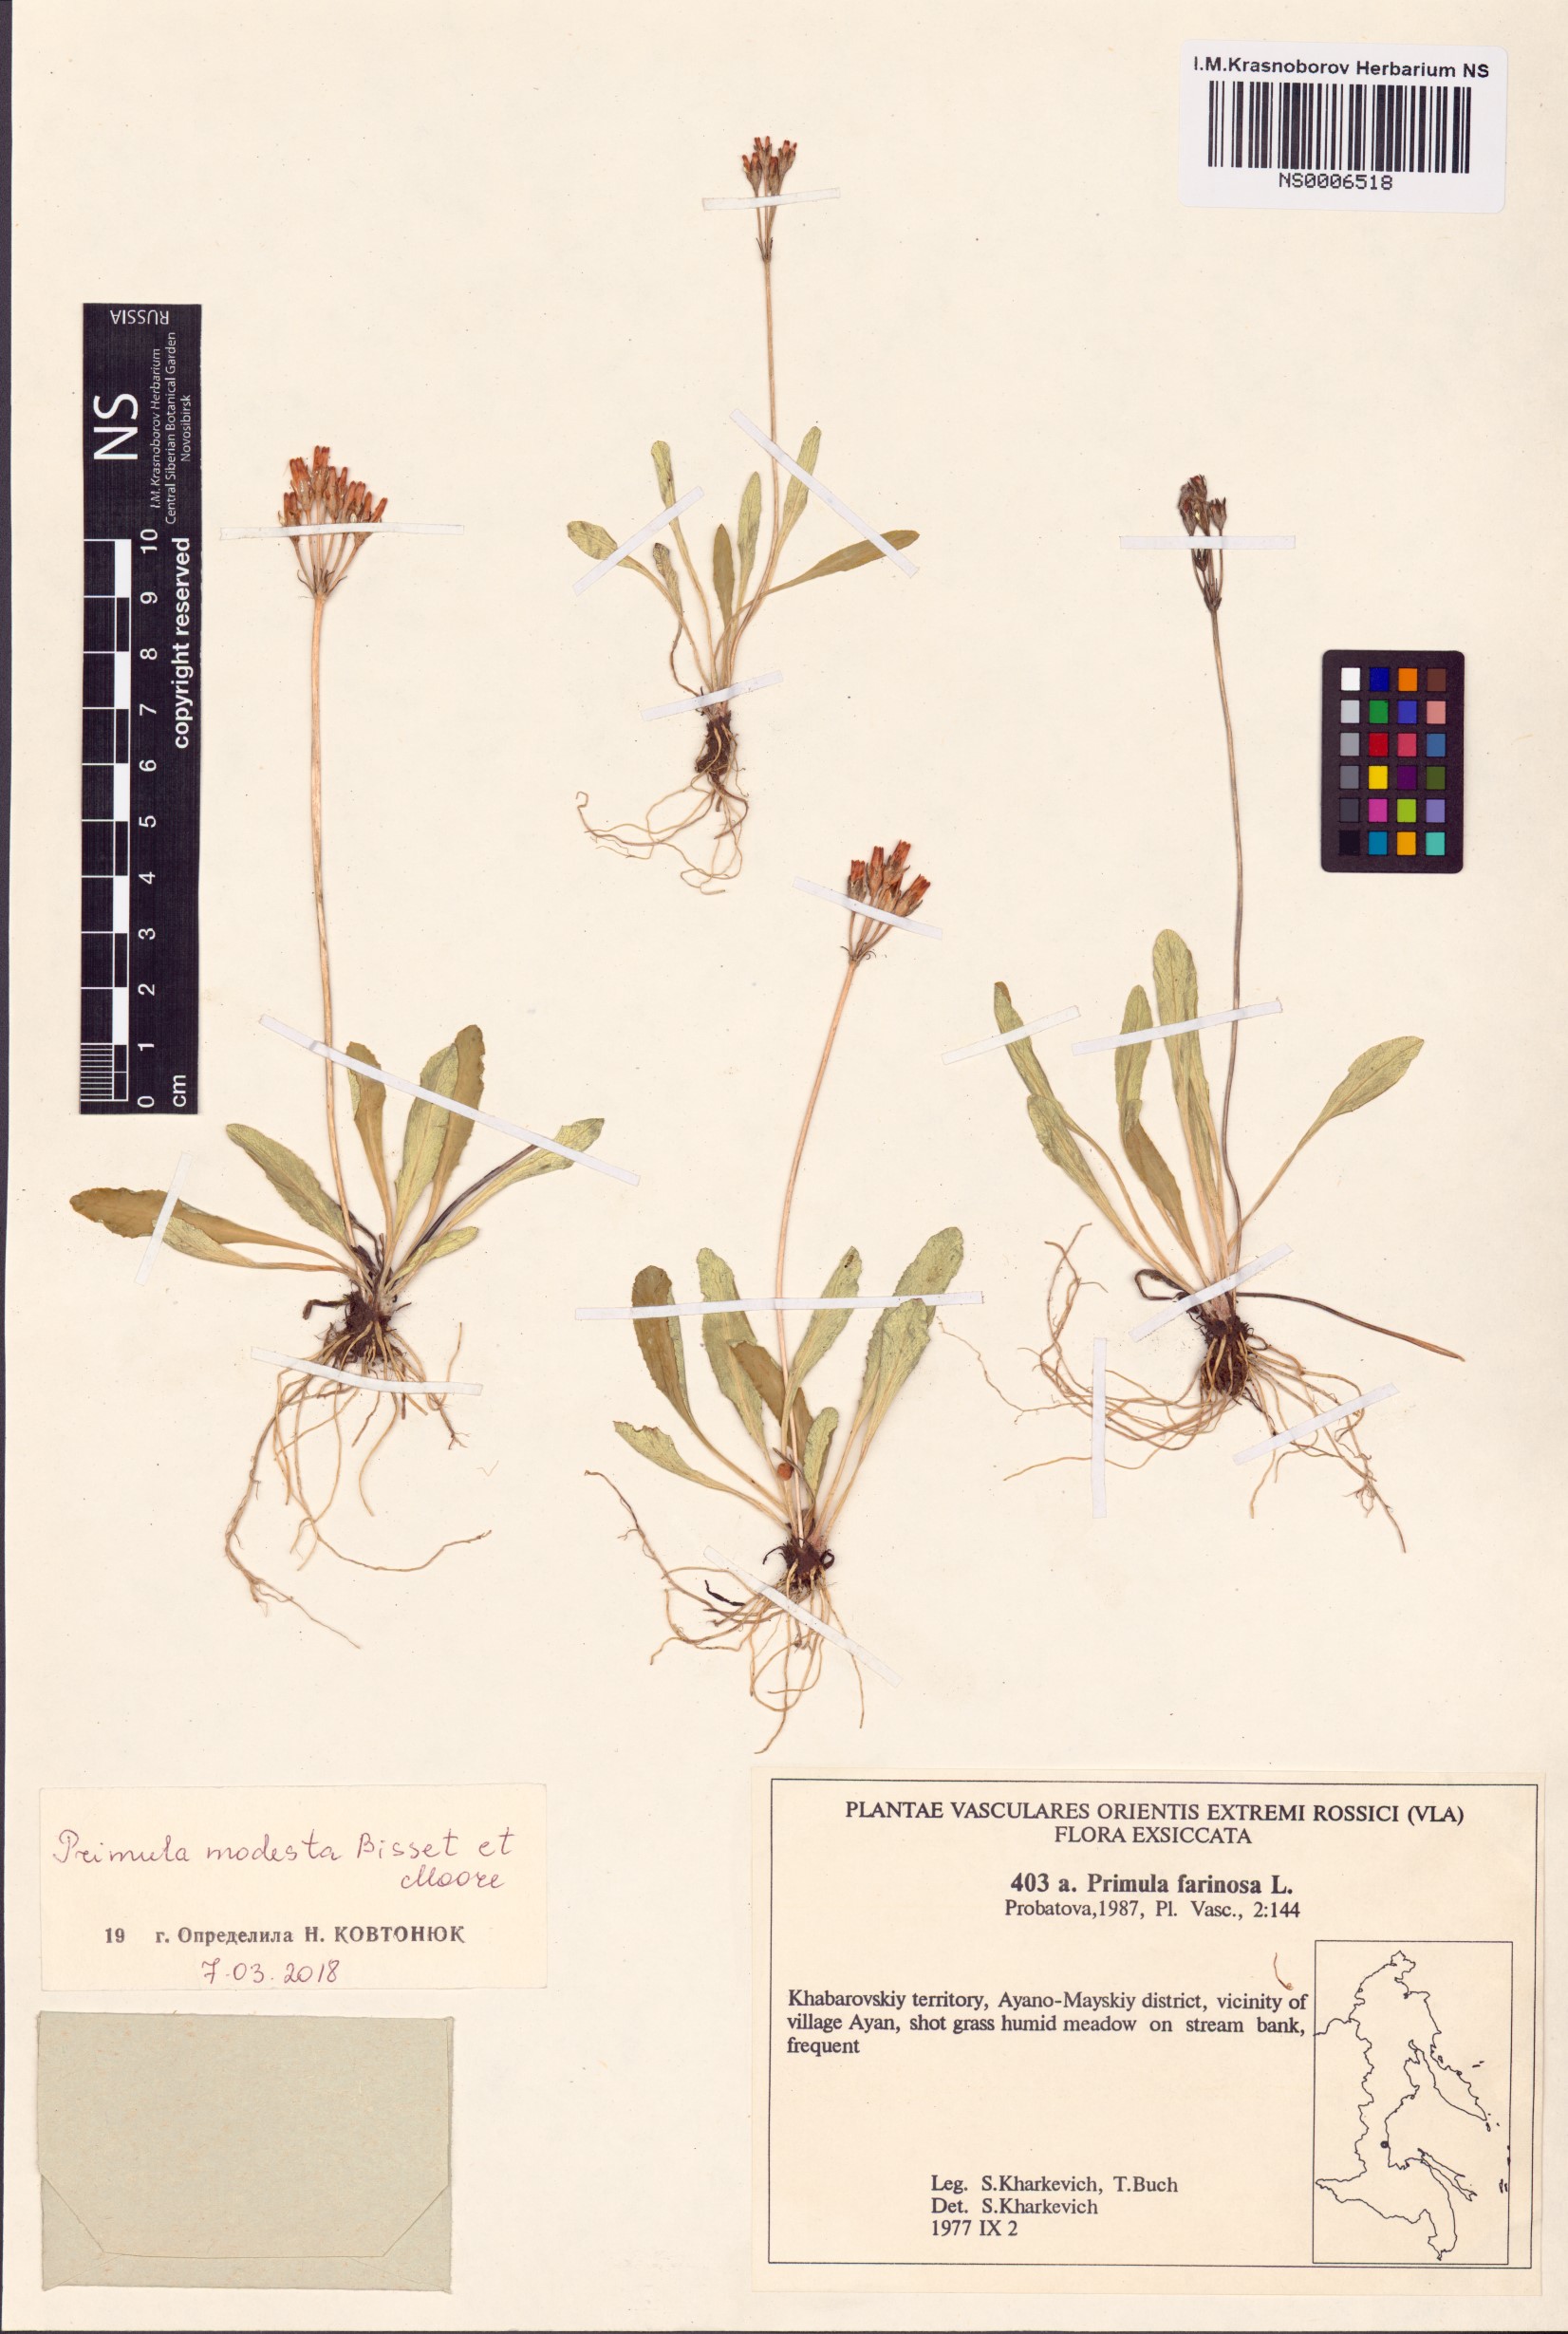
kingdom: Plantae
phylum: Tracheophyta
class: Magnoliopsida
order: Ericales
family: Primulaceae
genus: Primula
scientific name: Primula modesta
